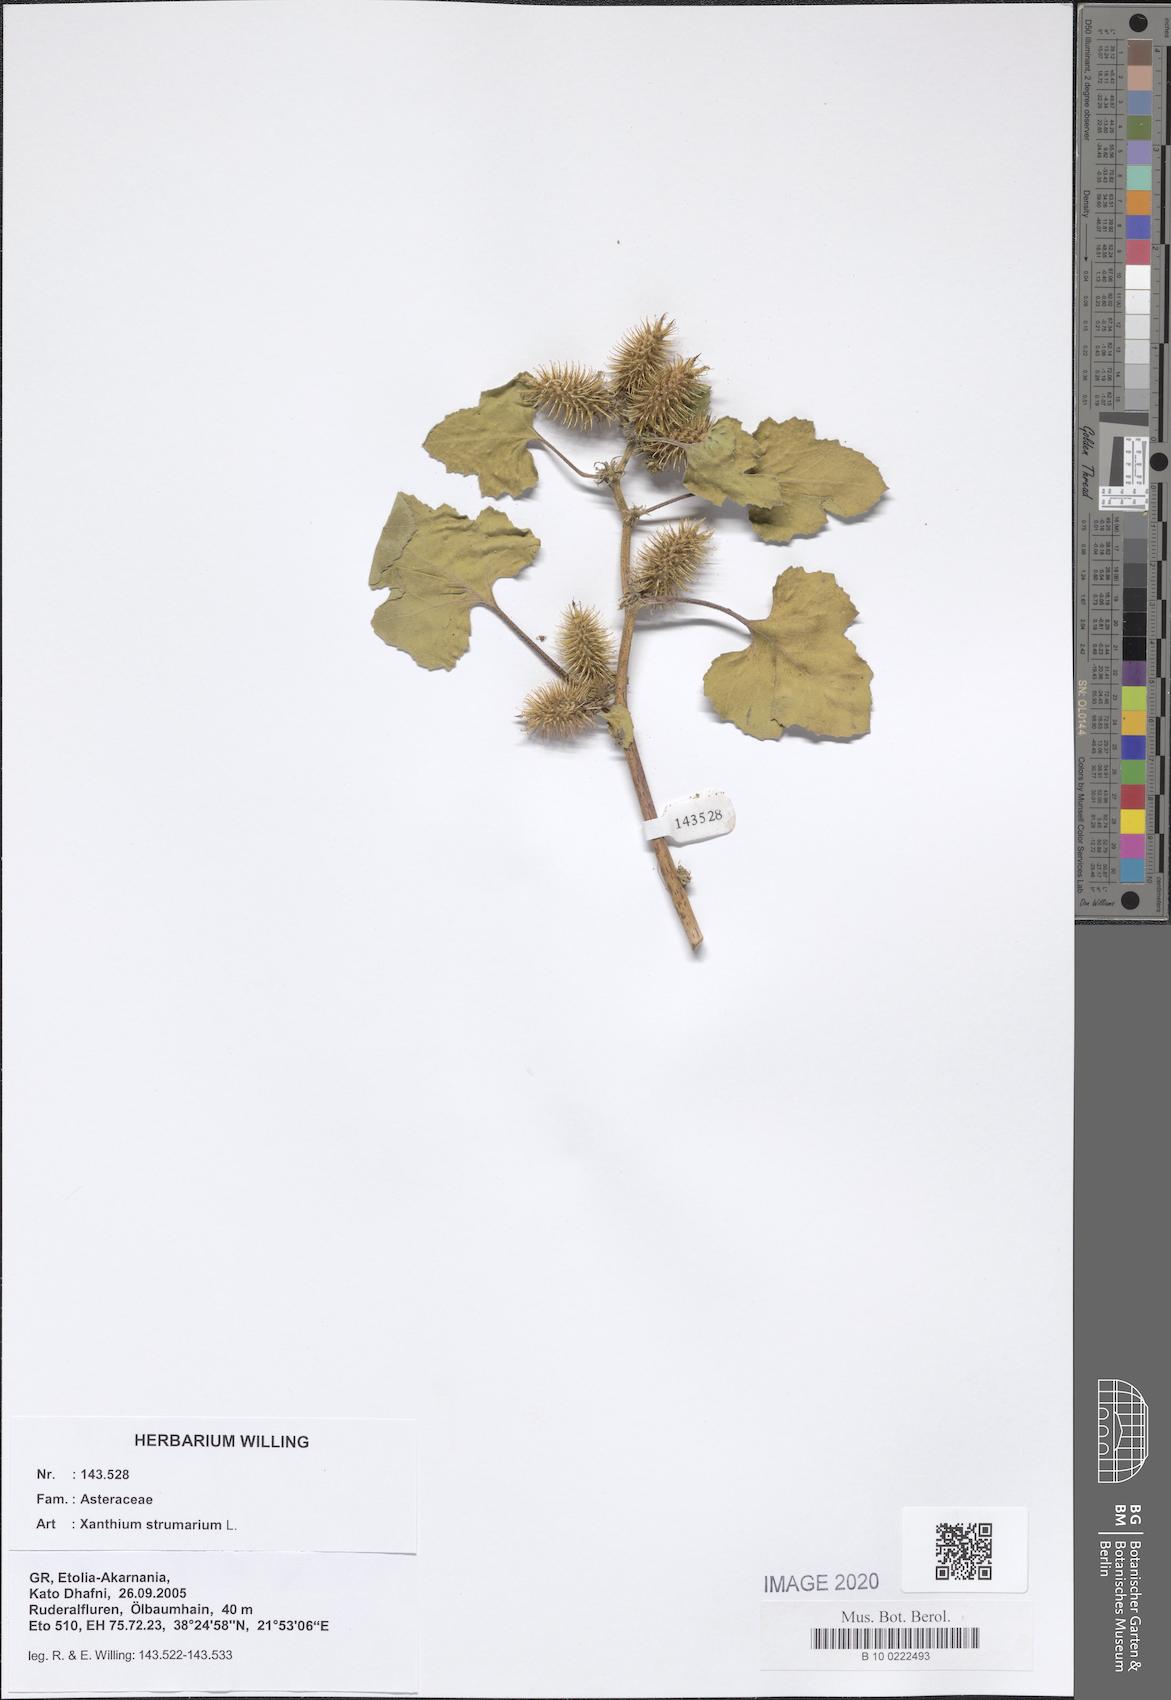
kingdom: Plantae
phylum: Tracheophyta
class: Magnoliopsida
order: Asterales
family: Asteraceae
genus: Xanthium
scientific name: Xanthium strumarium
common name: Rough cocklebur
